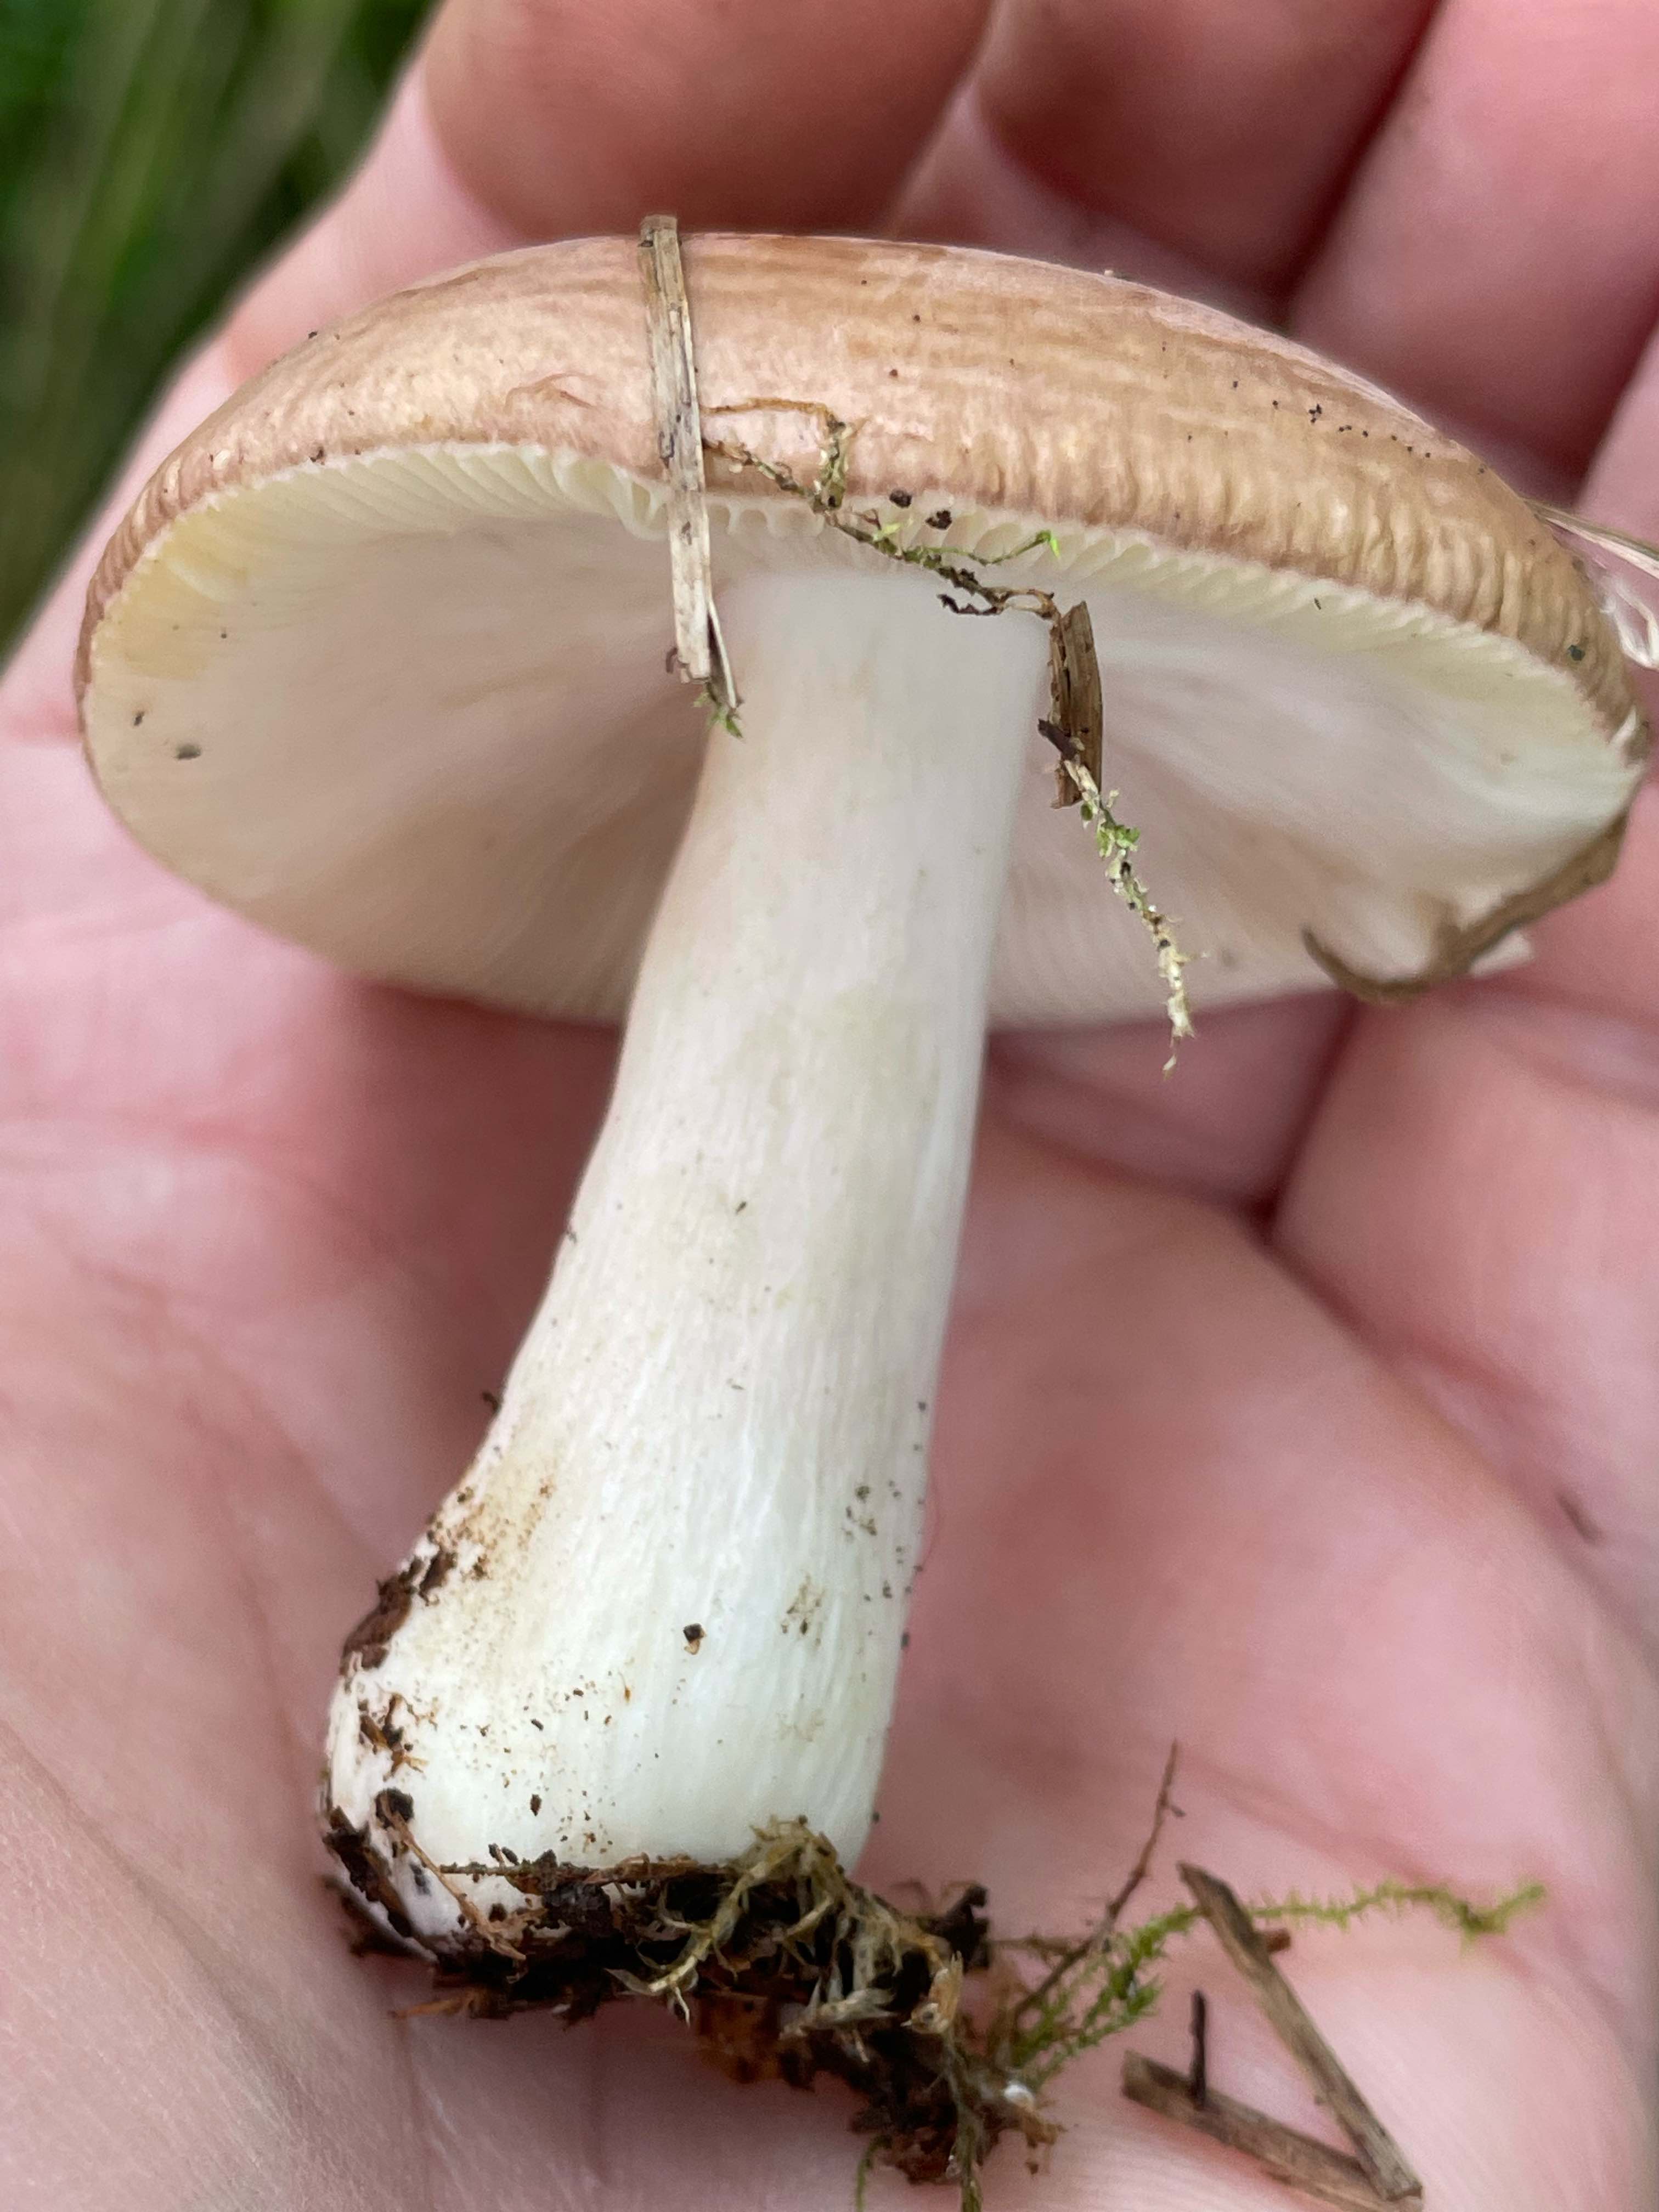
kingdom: Fungi
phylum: Basidiomycota
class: Agaricomycetes
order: Russulales
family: Russulaceae
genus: Russula
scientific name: Russula
